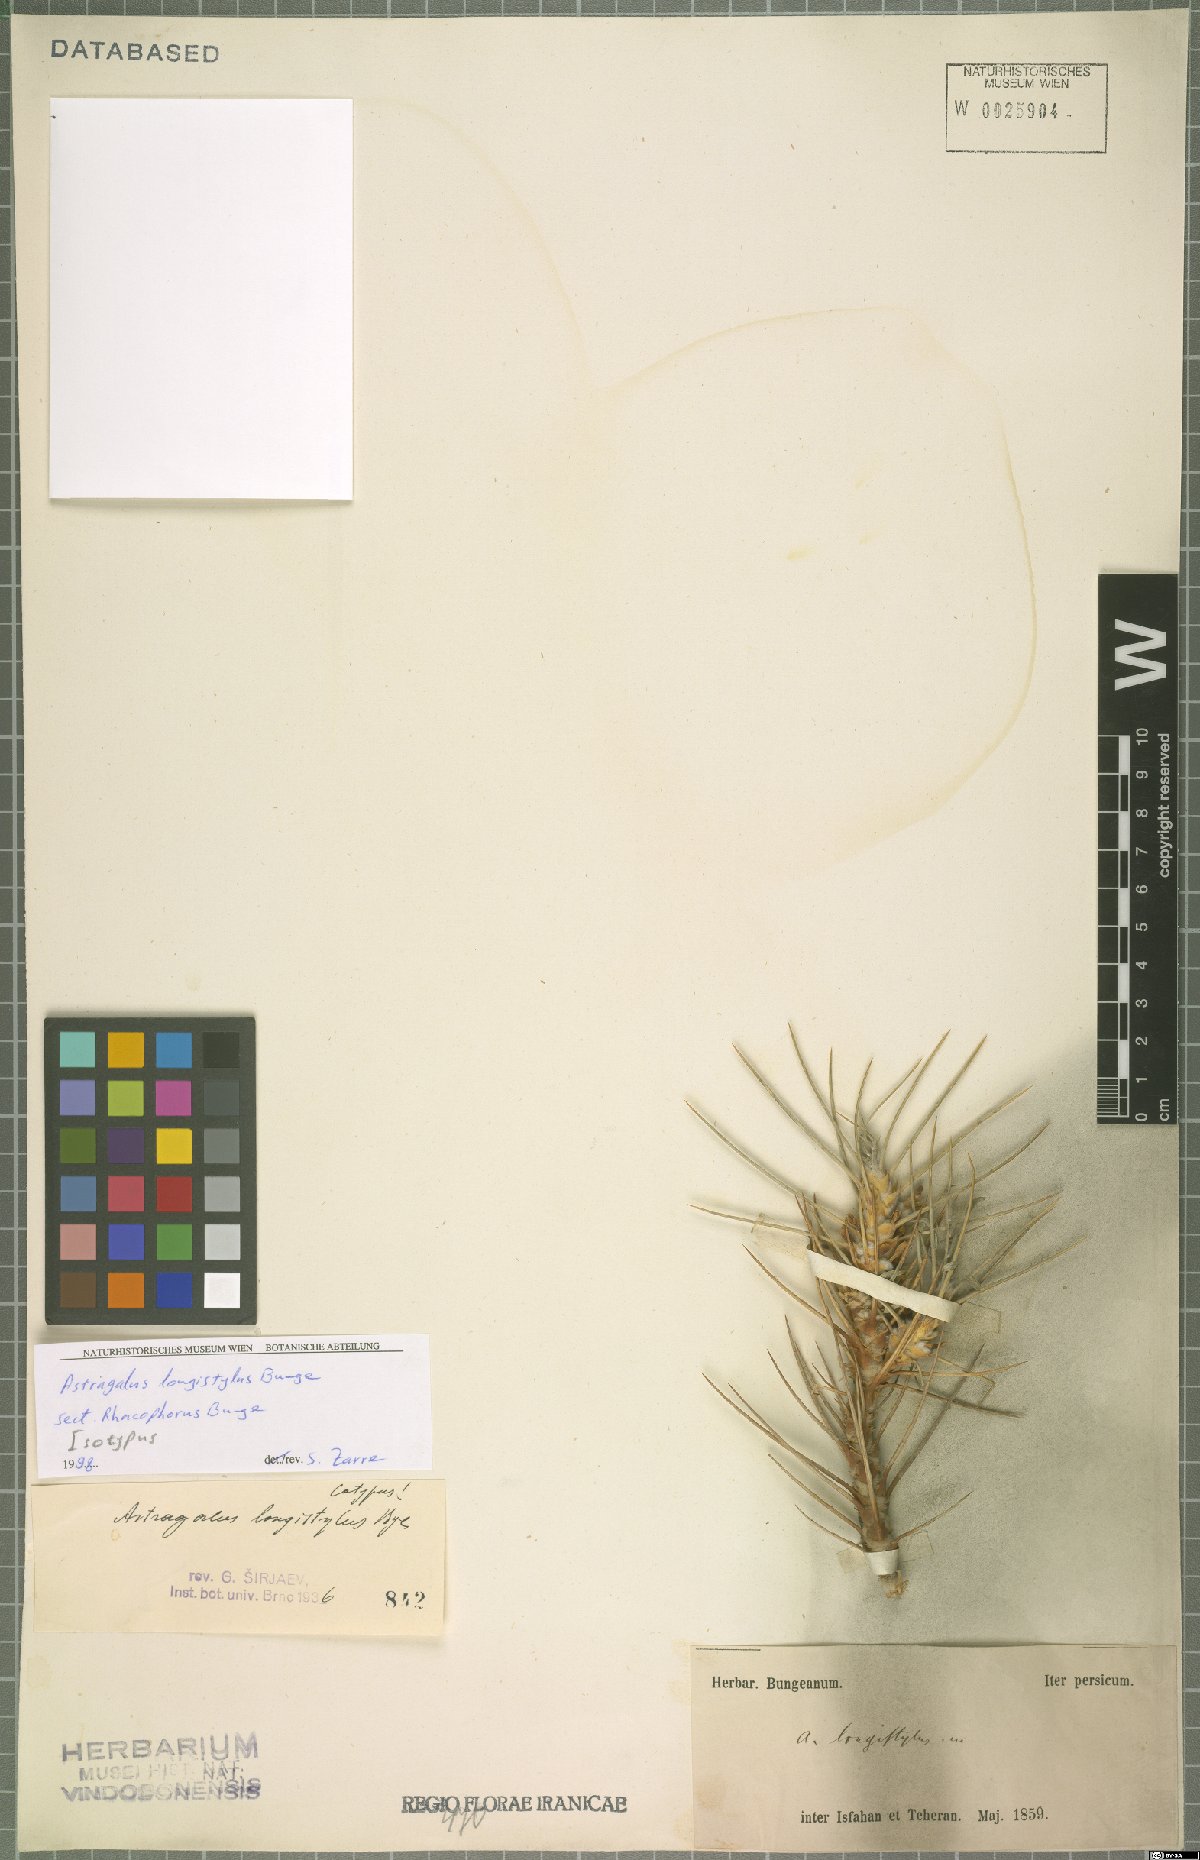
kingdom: Plantae
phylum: Tracheophyta
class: Magnoliopsida
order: Fabales
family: Fabaceae
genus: Astragalus
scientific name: Astragalus longistylus
